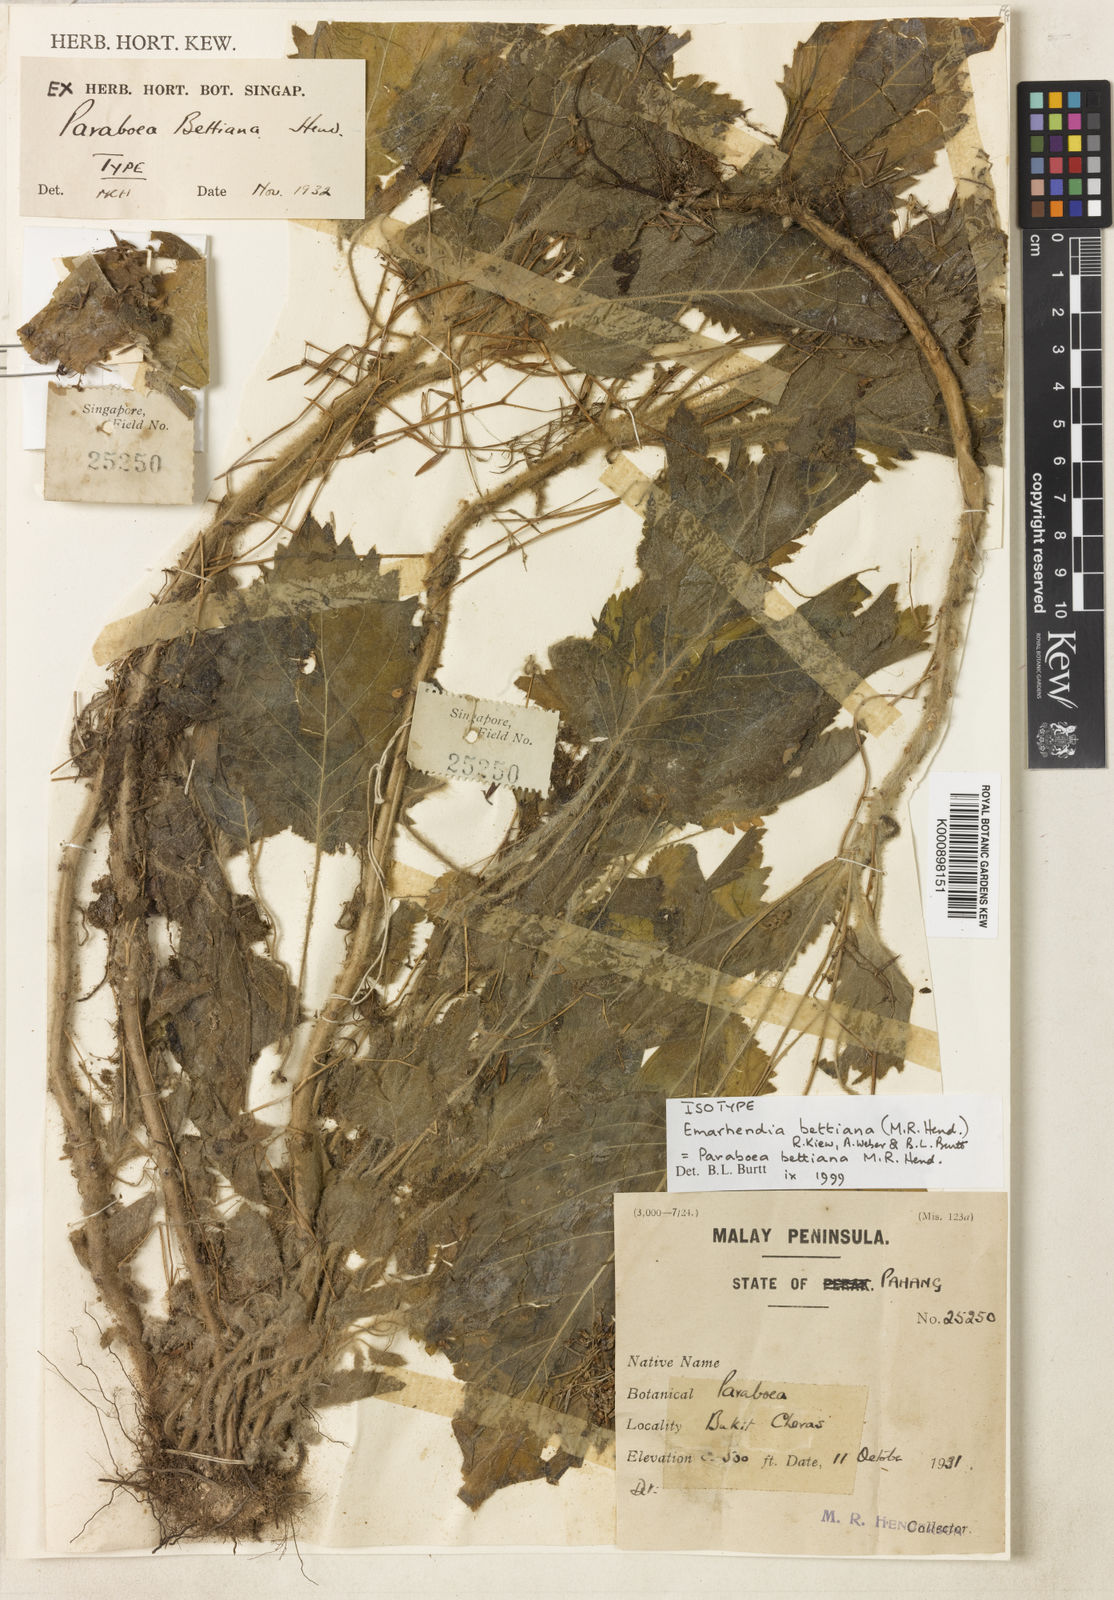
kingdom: Plantae
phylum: Tracheophyta
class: Magnoliopsida
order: Lamiales
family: Gesneriaceae
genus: Emarhendia
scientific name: Emarhendia bettiana
